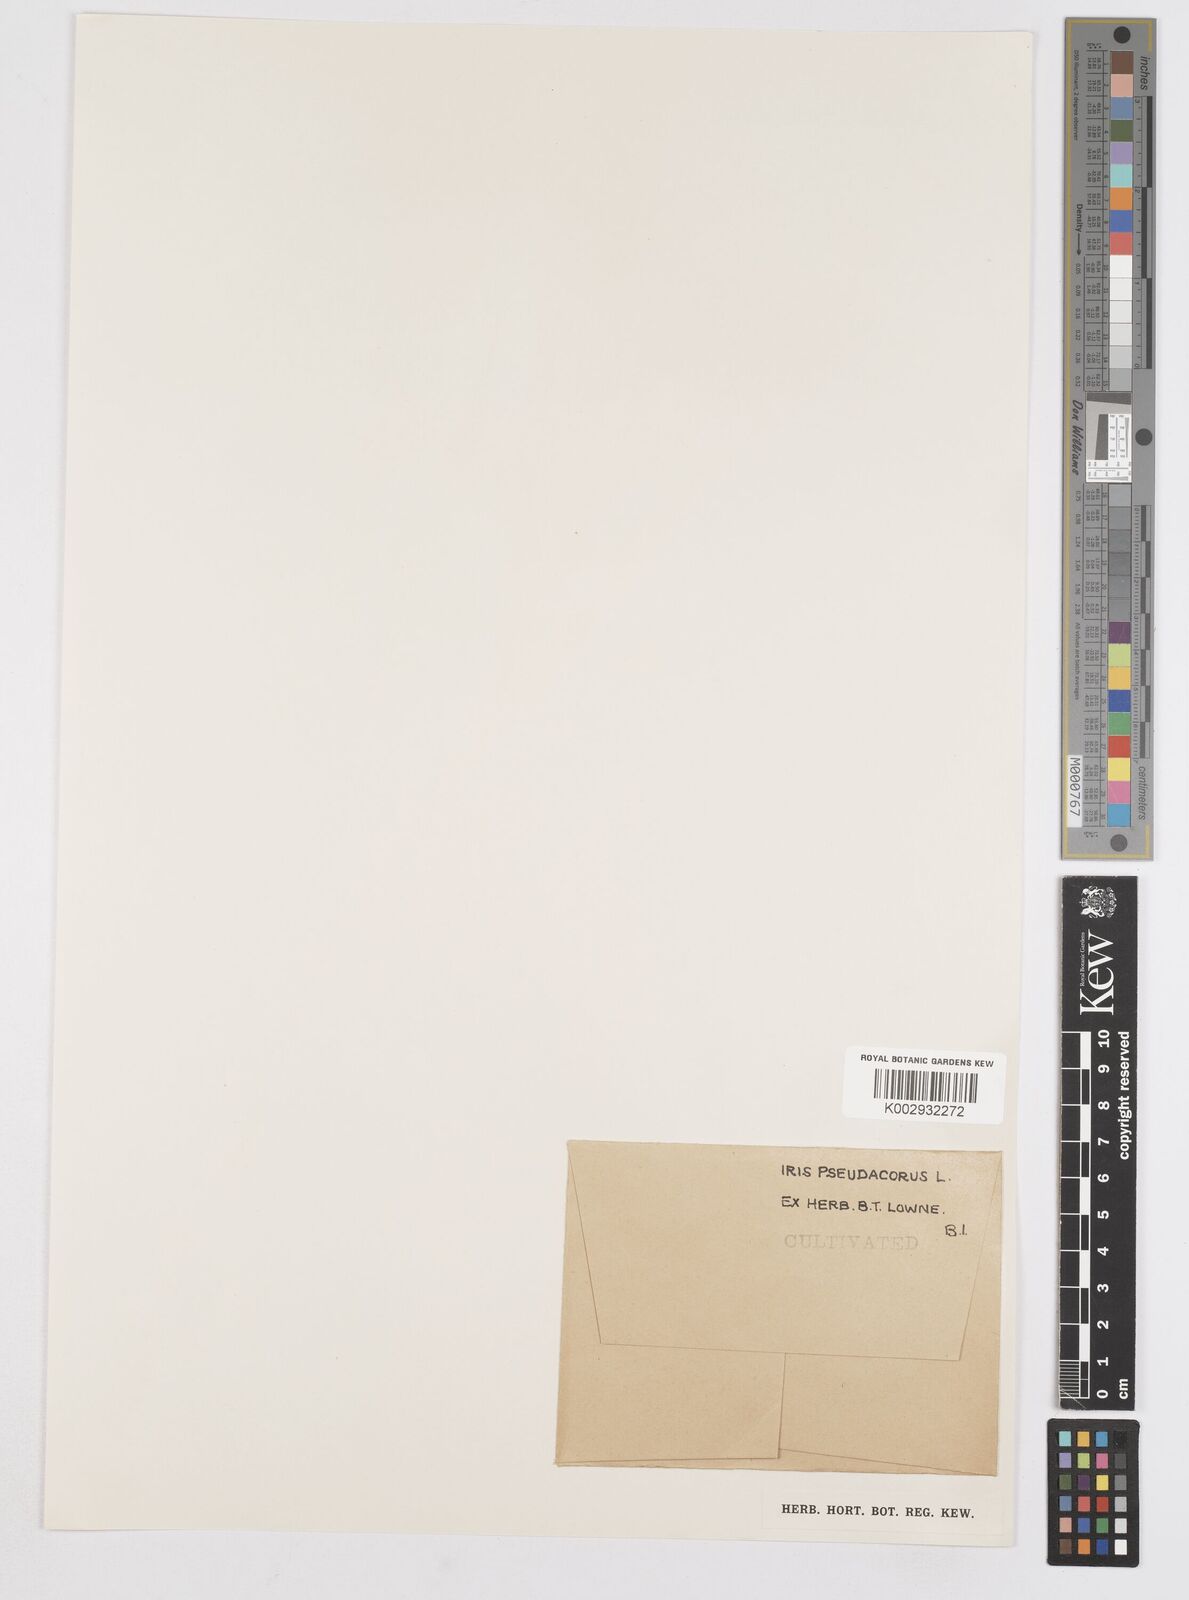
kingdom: Plantae
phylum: Tracheophyta
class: Liliopsida
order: Asparagales
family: Iridaceae
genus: Iris
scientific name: Iris pseudacorus
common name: Yellow flag
